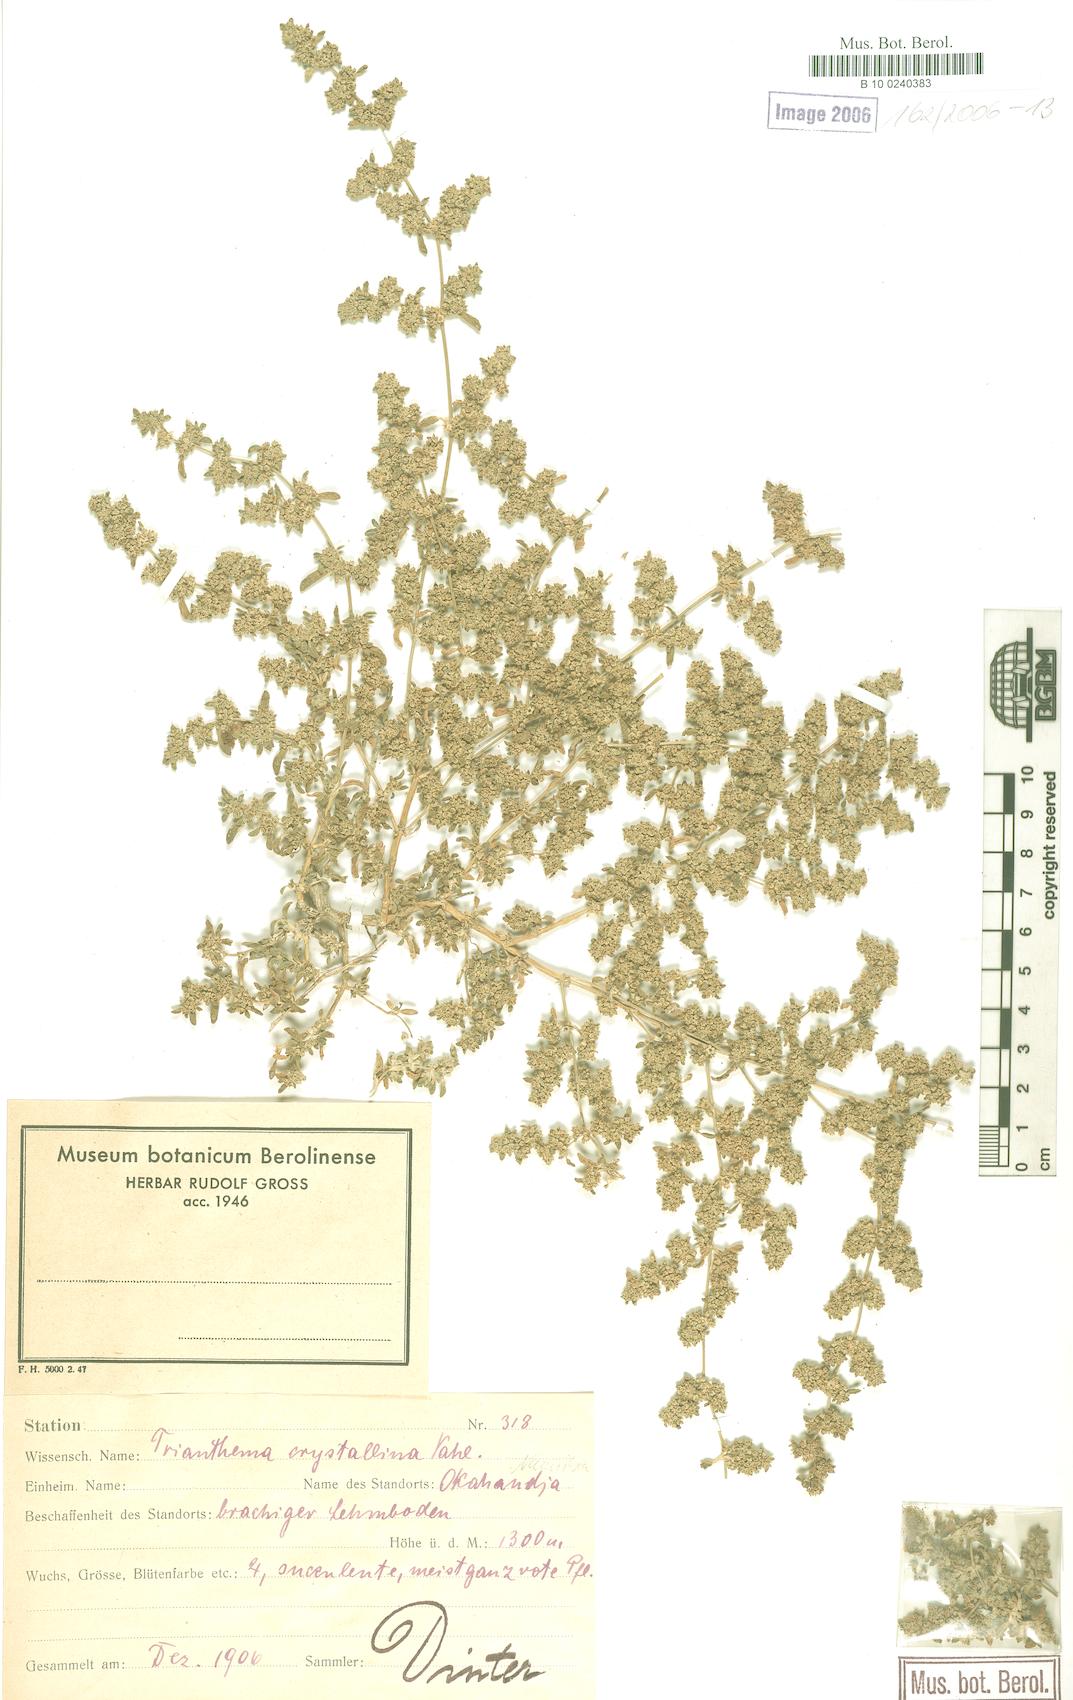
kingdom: Plantae
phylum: Tracheophyta
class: Magnoliopsida
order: Caryophyllales
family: Aizoaceae
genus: Trianthema
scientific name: Trianthema crystallinum
